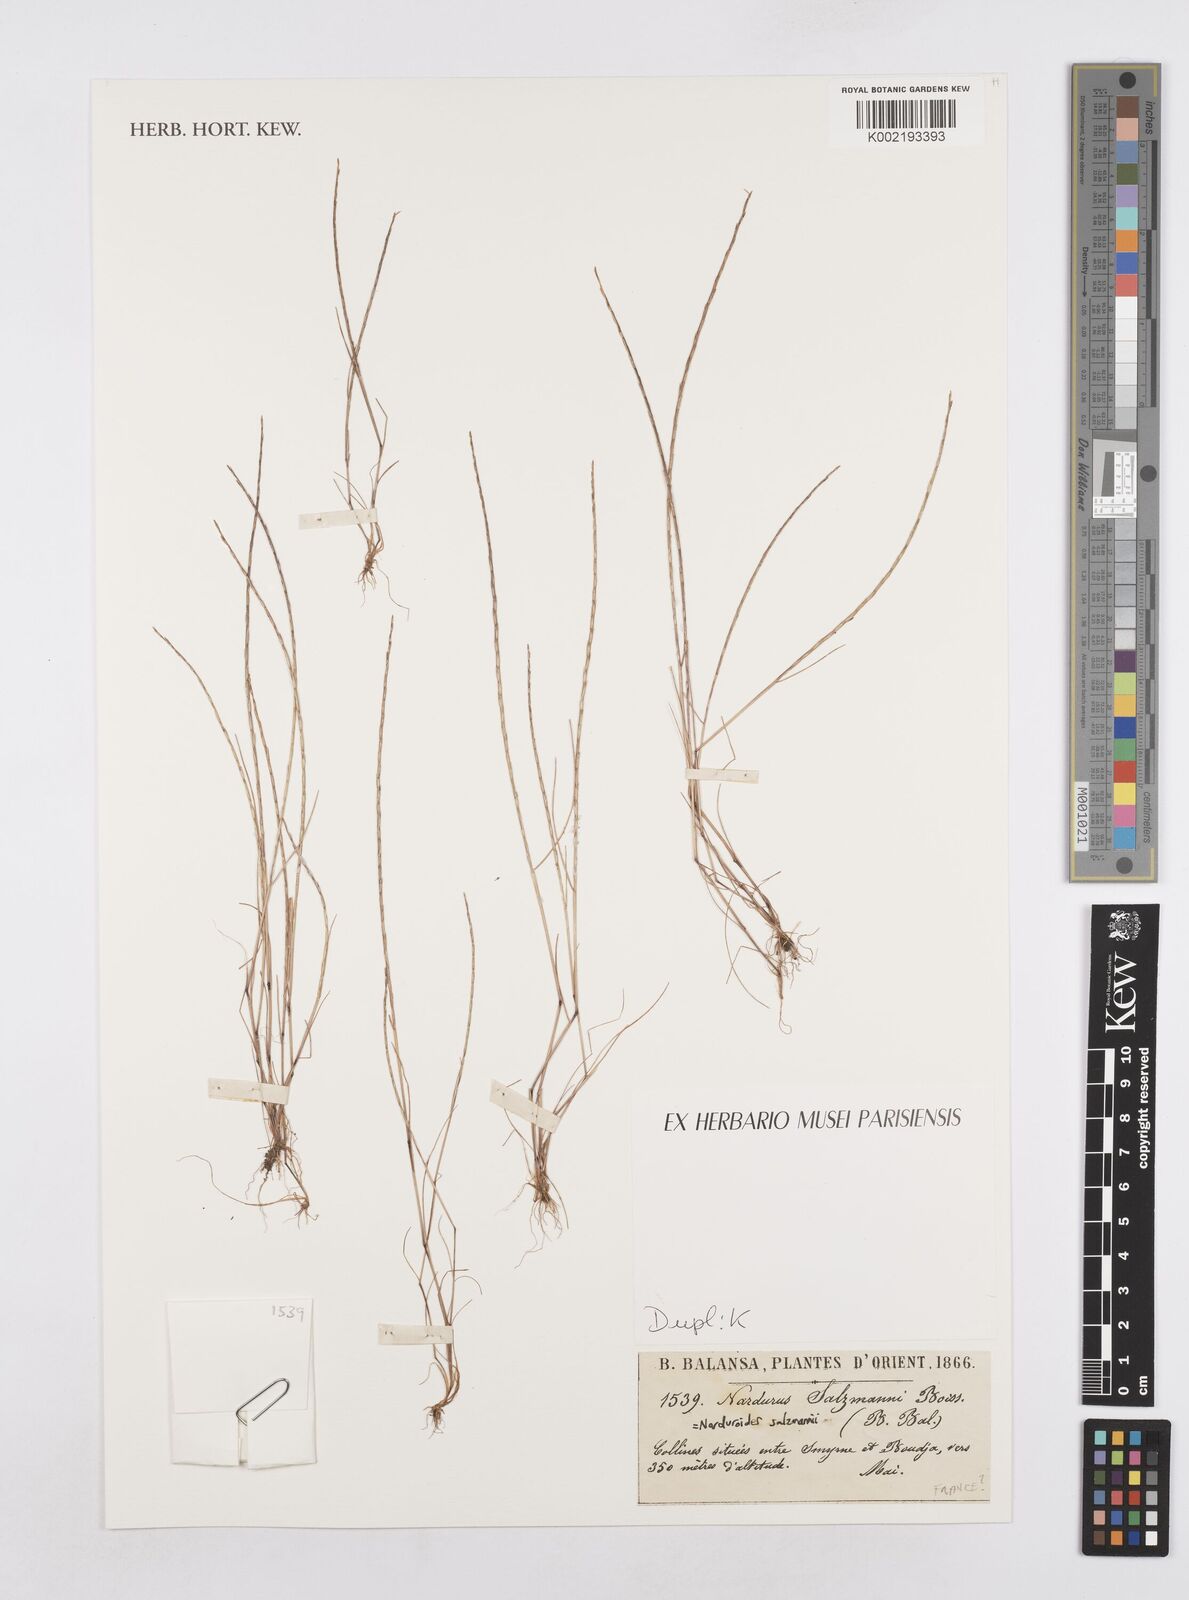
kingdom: Plantae
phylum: Tracheophyta
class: Liliopsida
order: Poales
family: Poaceae
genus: Festuca
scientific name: Festuca salzmannii
